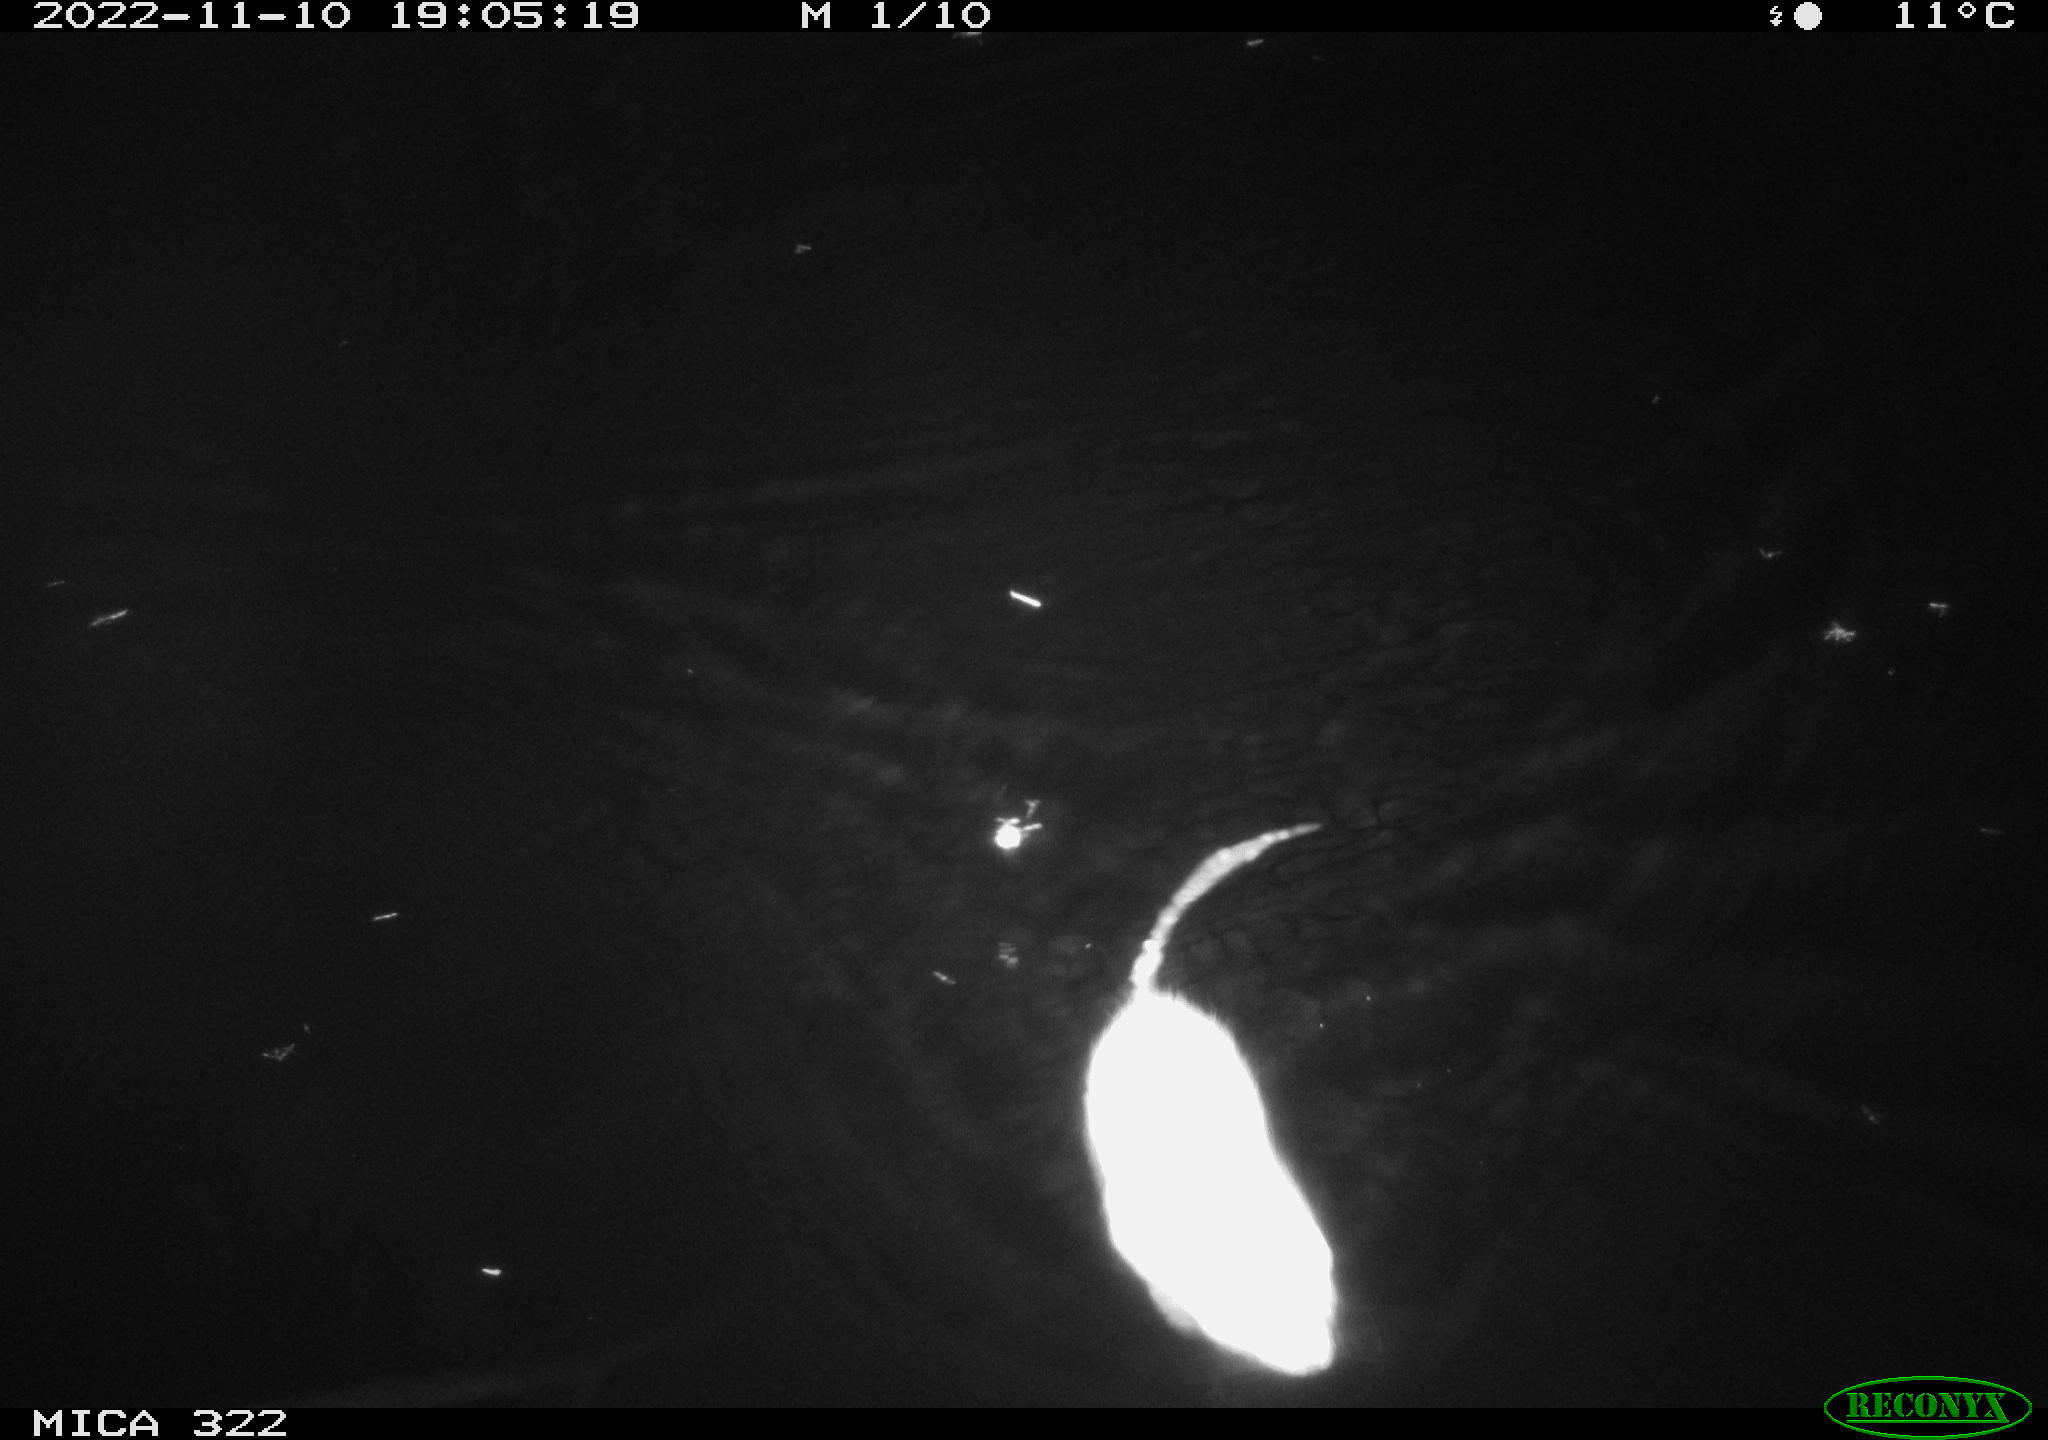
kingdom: Animalia
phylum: Chordata
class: Mammalia
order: Rodentia
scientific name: Rodentia
